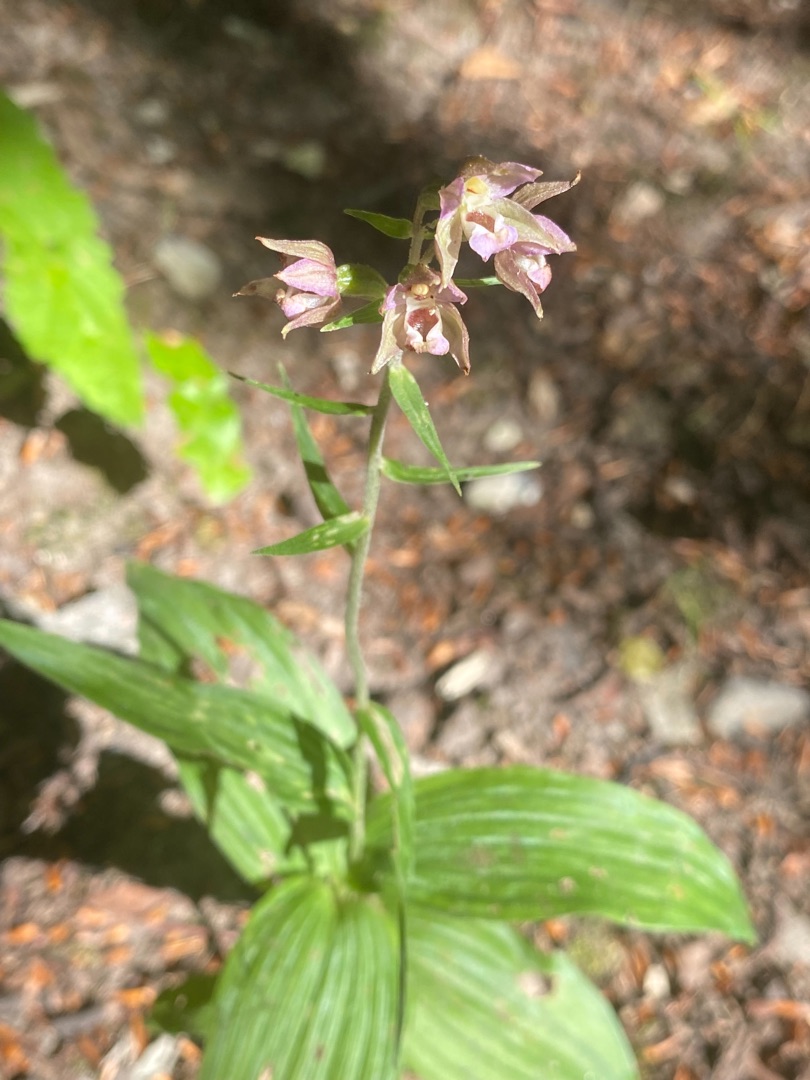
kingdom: Plantae
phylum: Tracheophyta
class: Liliopsida
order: Asparagales
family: Orchidaceae
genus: Epipactis
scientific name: Epipactis helleborine
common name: Skov-hullæbe
